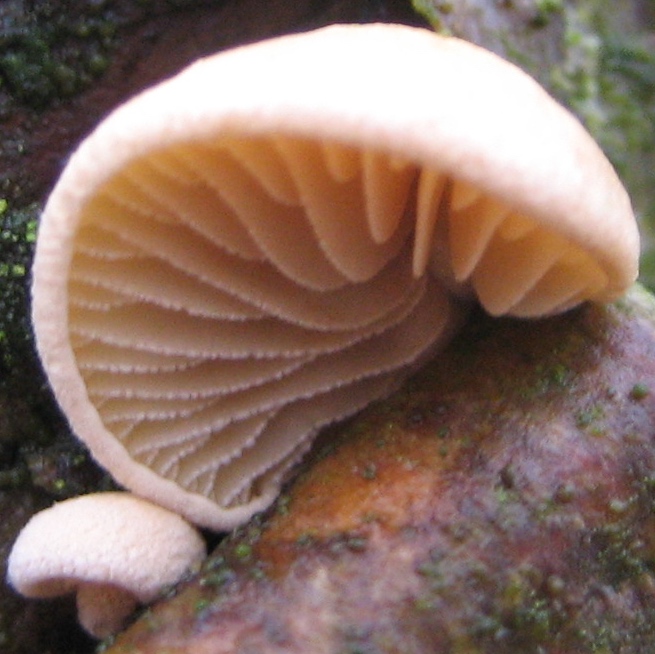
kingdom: Fungi
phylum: Basidiomycota
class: Agaricomycetes
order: Agaricales
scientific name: Agaricales
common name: champignonordenen
